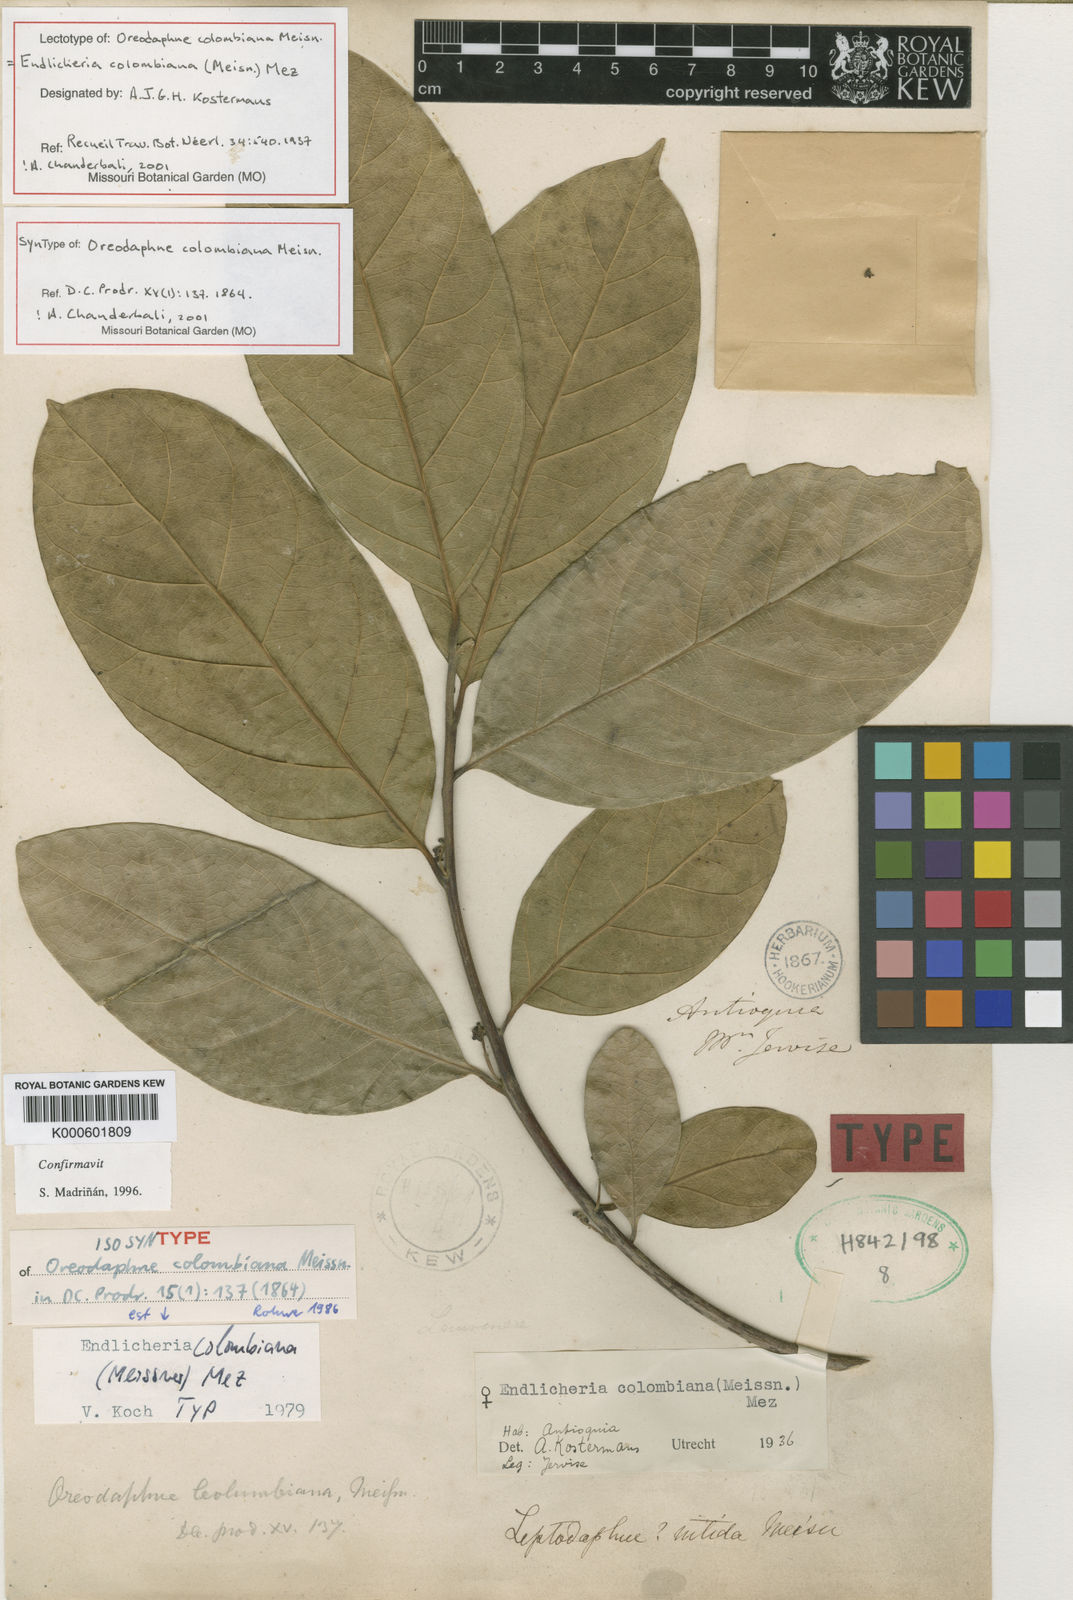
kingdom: Plantae
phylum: Tracheophyta
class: Magnoliopsida
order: Laurales
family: Lauraceae
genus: Endlicheria
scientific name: Endlicheria columbiana
